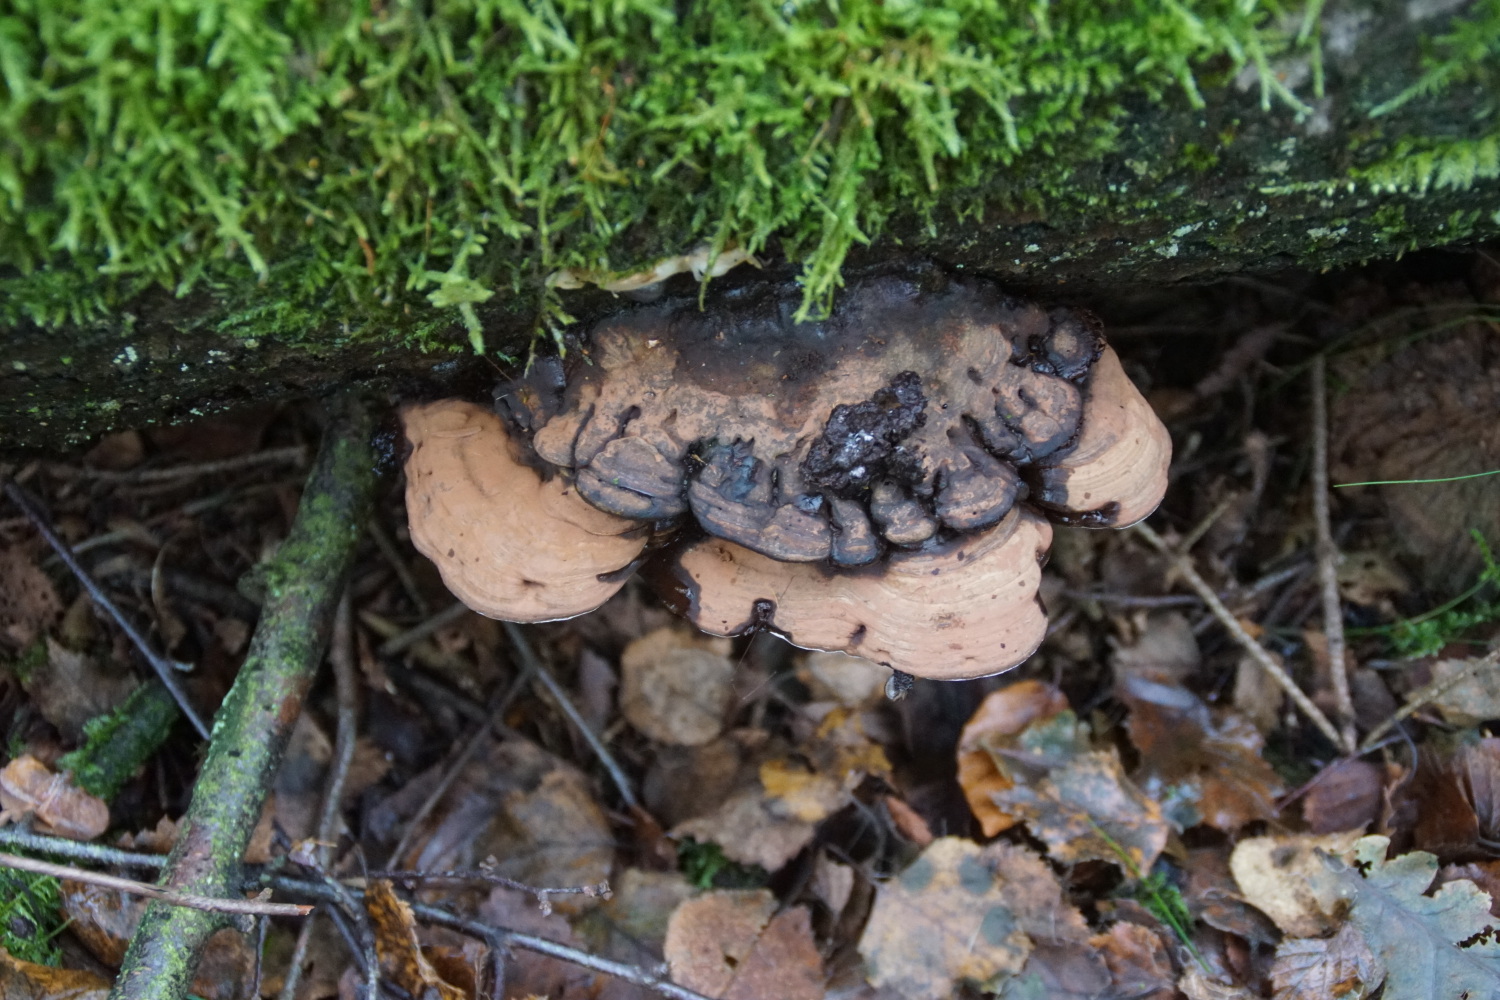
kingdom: Fungi
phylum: Basidiomycota
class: Agaricomycetes
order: Polyporales
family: Polyporaceae
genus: Ganoderma
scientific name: Ganoderma applanatum
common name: flad lakporesvamp
